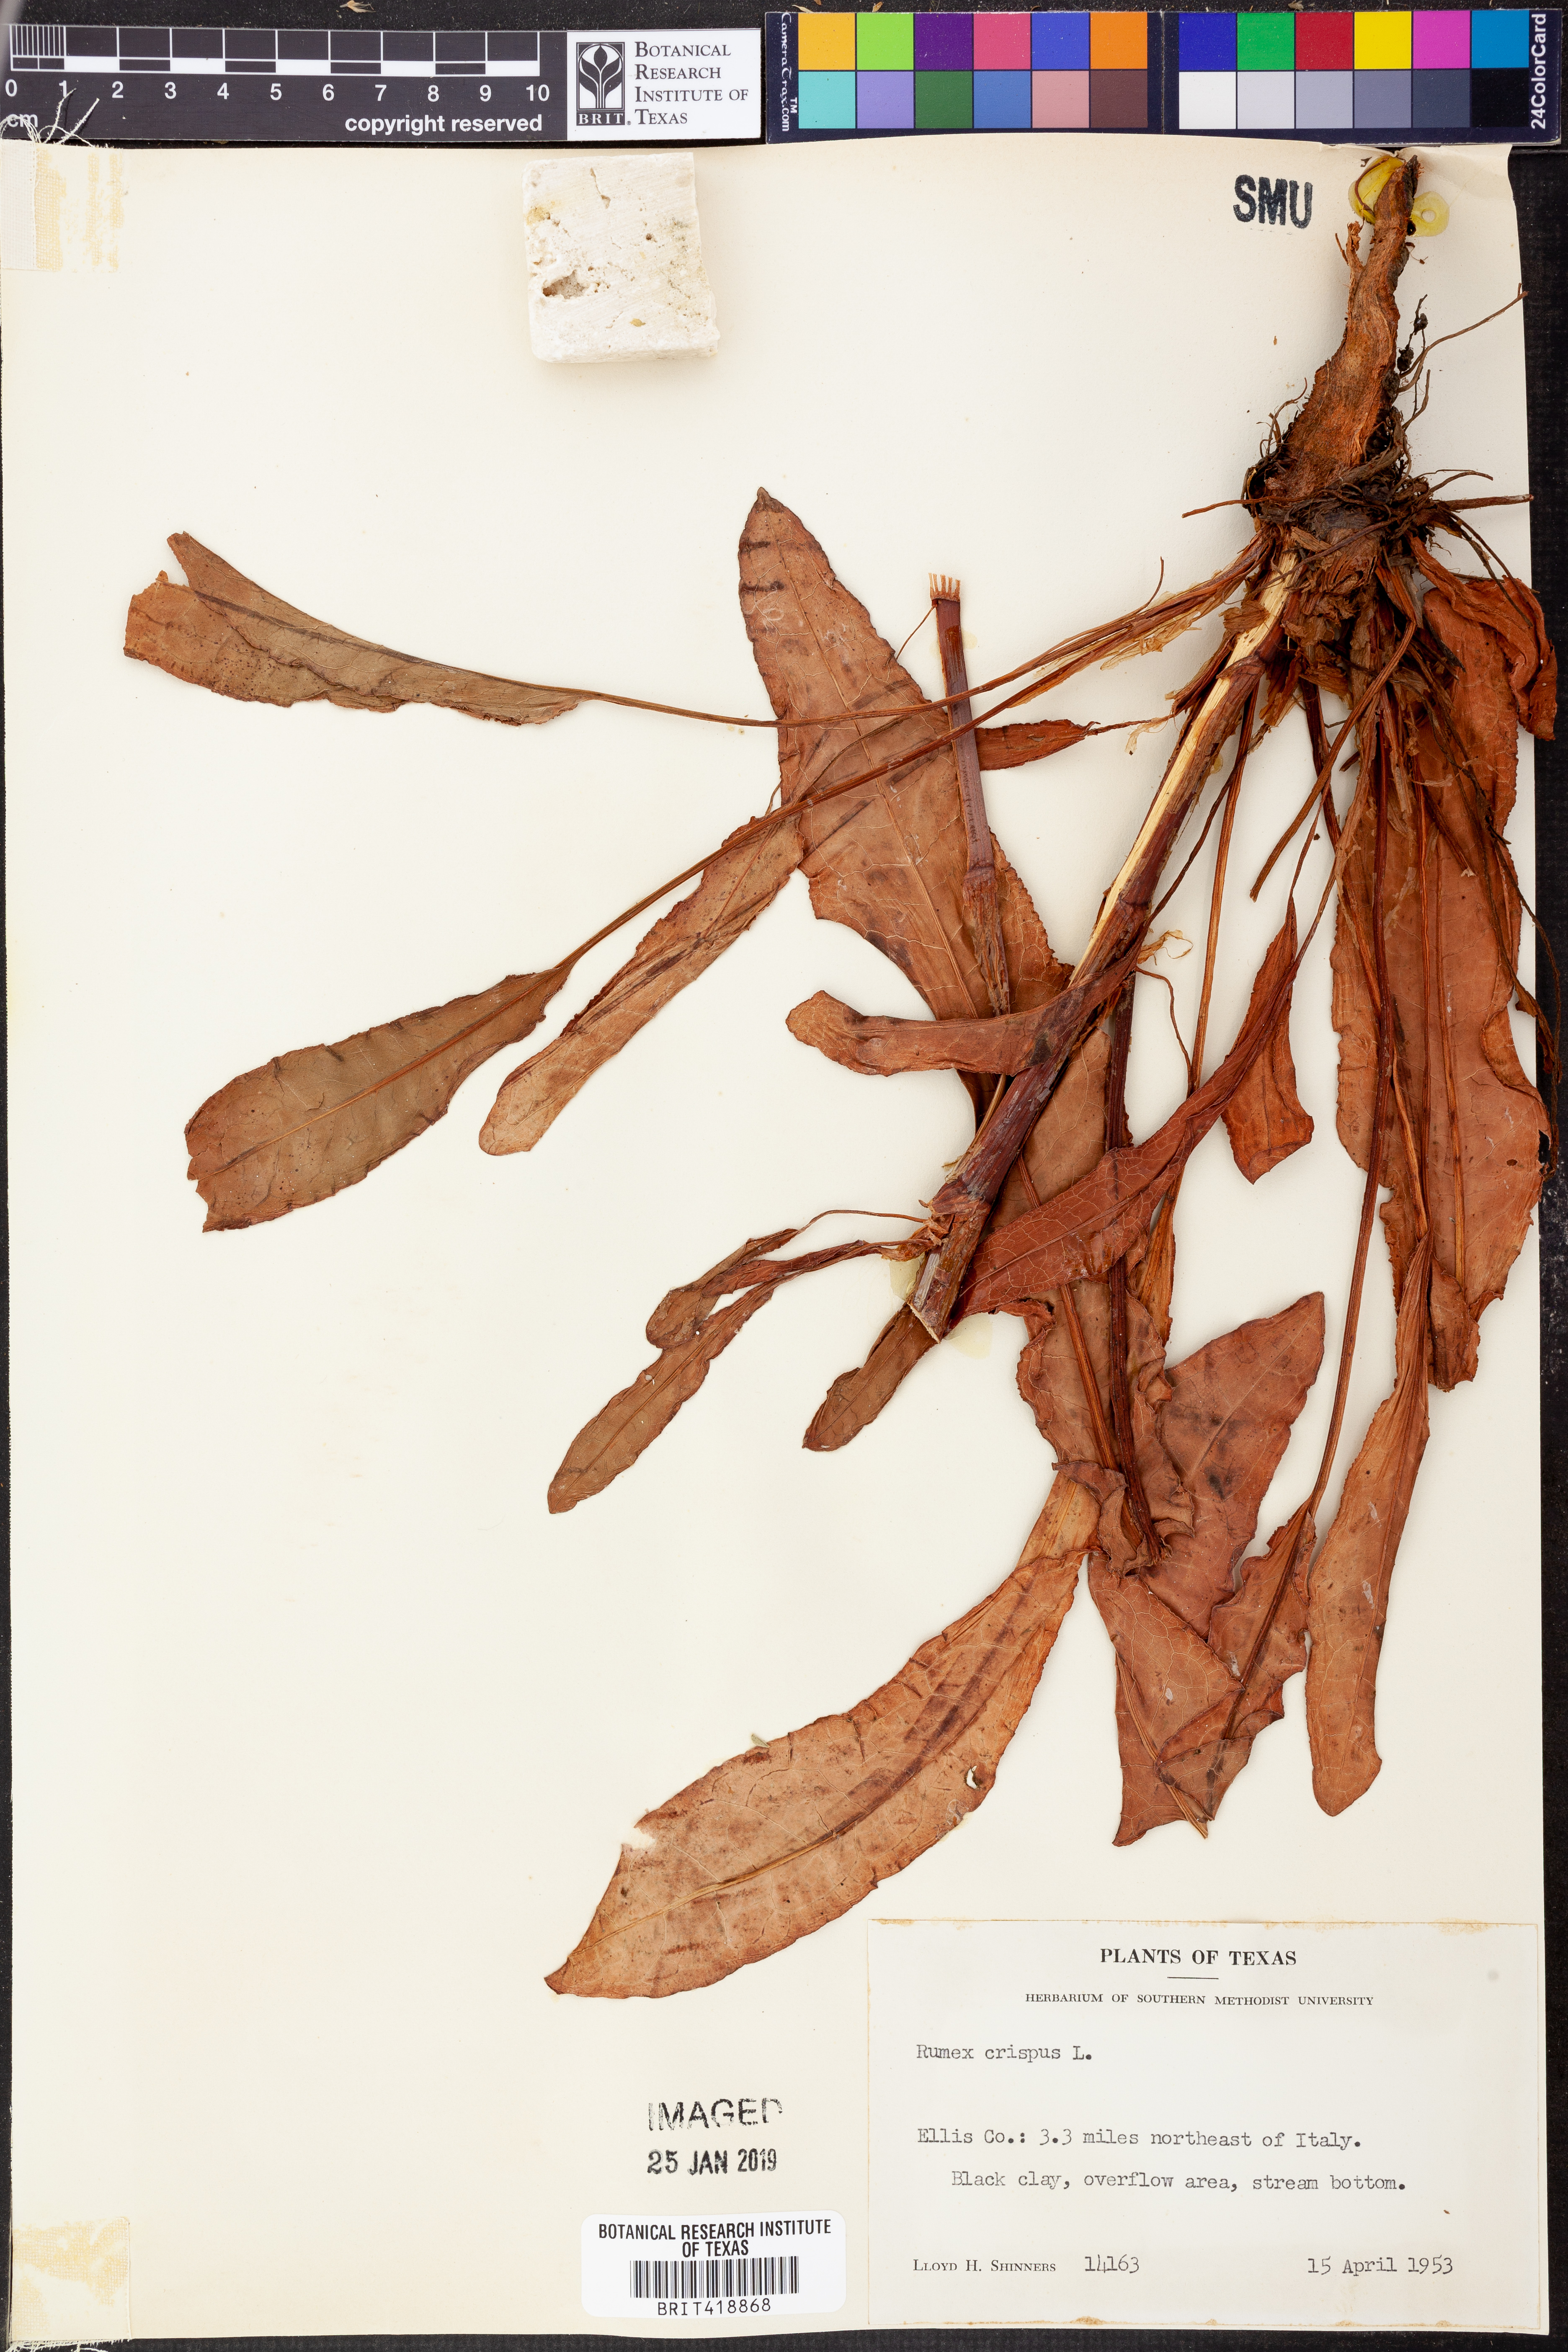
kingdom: Plantae
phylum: Tracheophyta
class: Magnoliopsida
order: Caryophyllales
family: Polygonaceae
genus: Rumex
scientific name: Rumex crispus
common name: Curled dock
